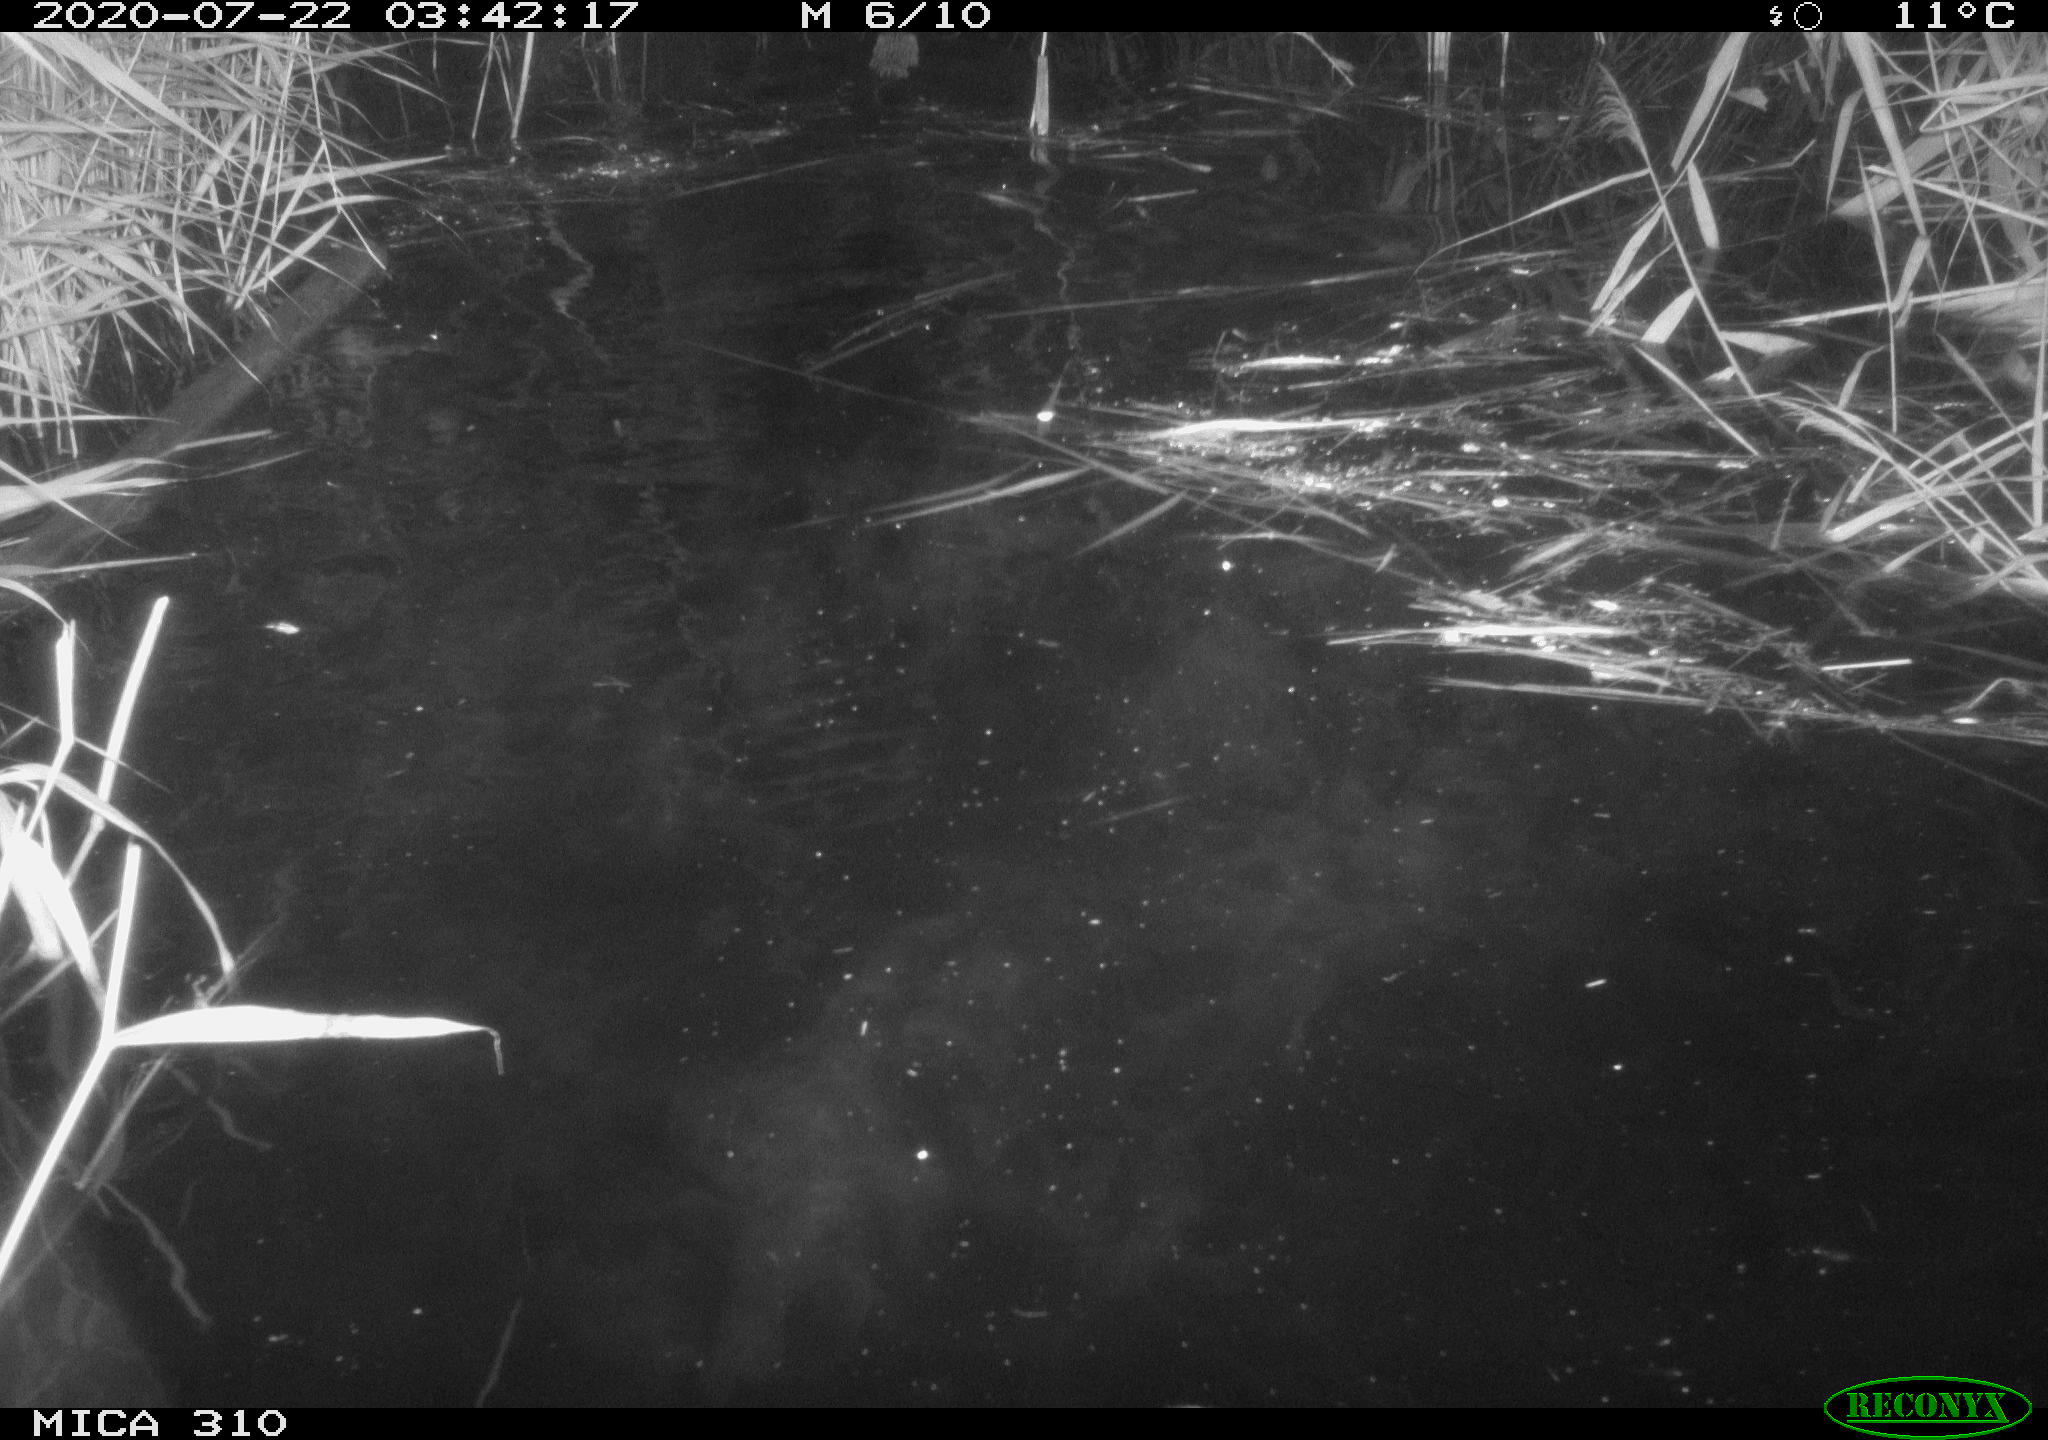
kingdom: Animalia
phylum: Chordata
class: Mammalia
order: Rodentia
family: Cricetidae
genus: Ondatra
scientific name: Ondatra zibethicus
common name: Muskrat
